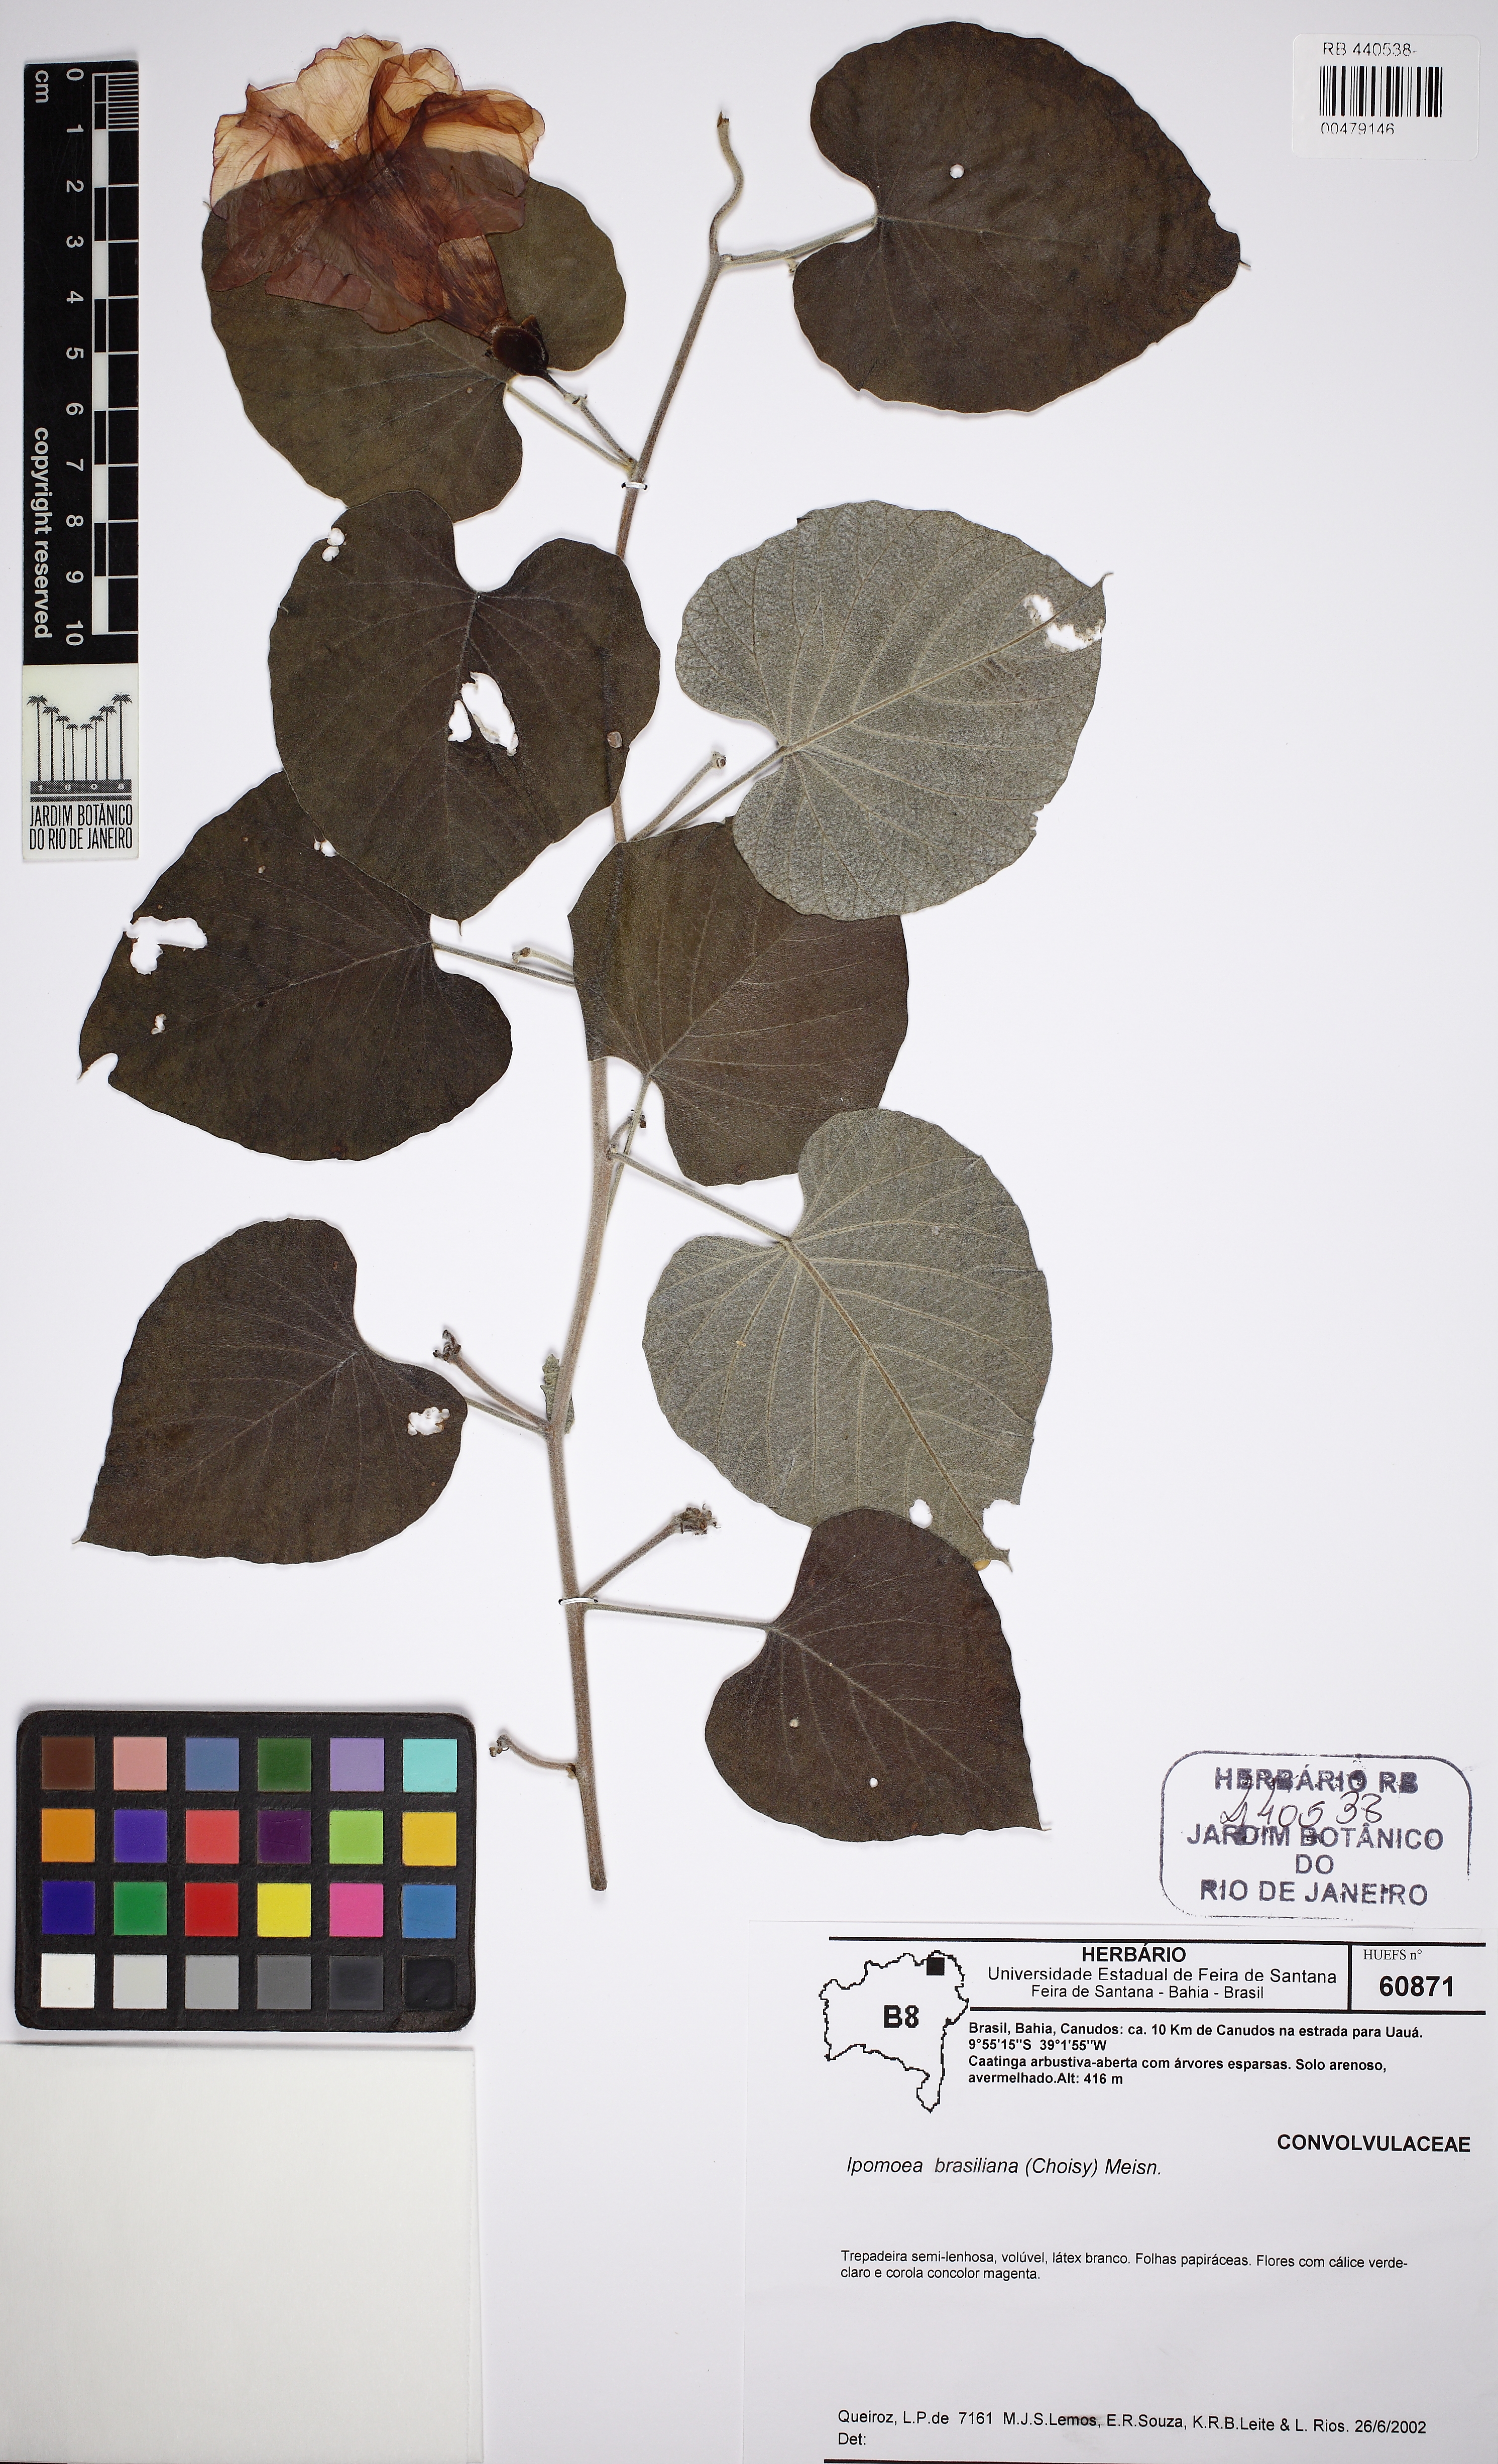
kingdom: Plantae
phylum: Tracheophyta
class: Magnoliopsida
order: Solanales
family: Convolvulaceae
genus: Ipomoea
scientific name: Ipomoea brasiliana
